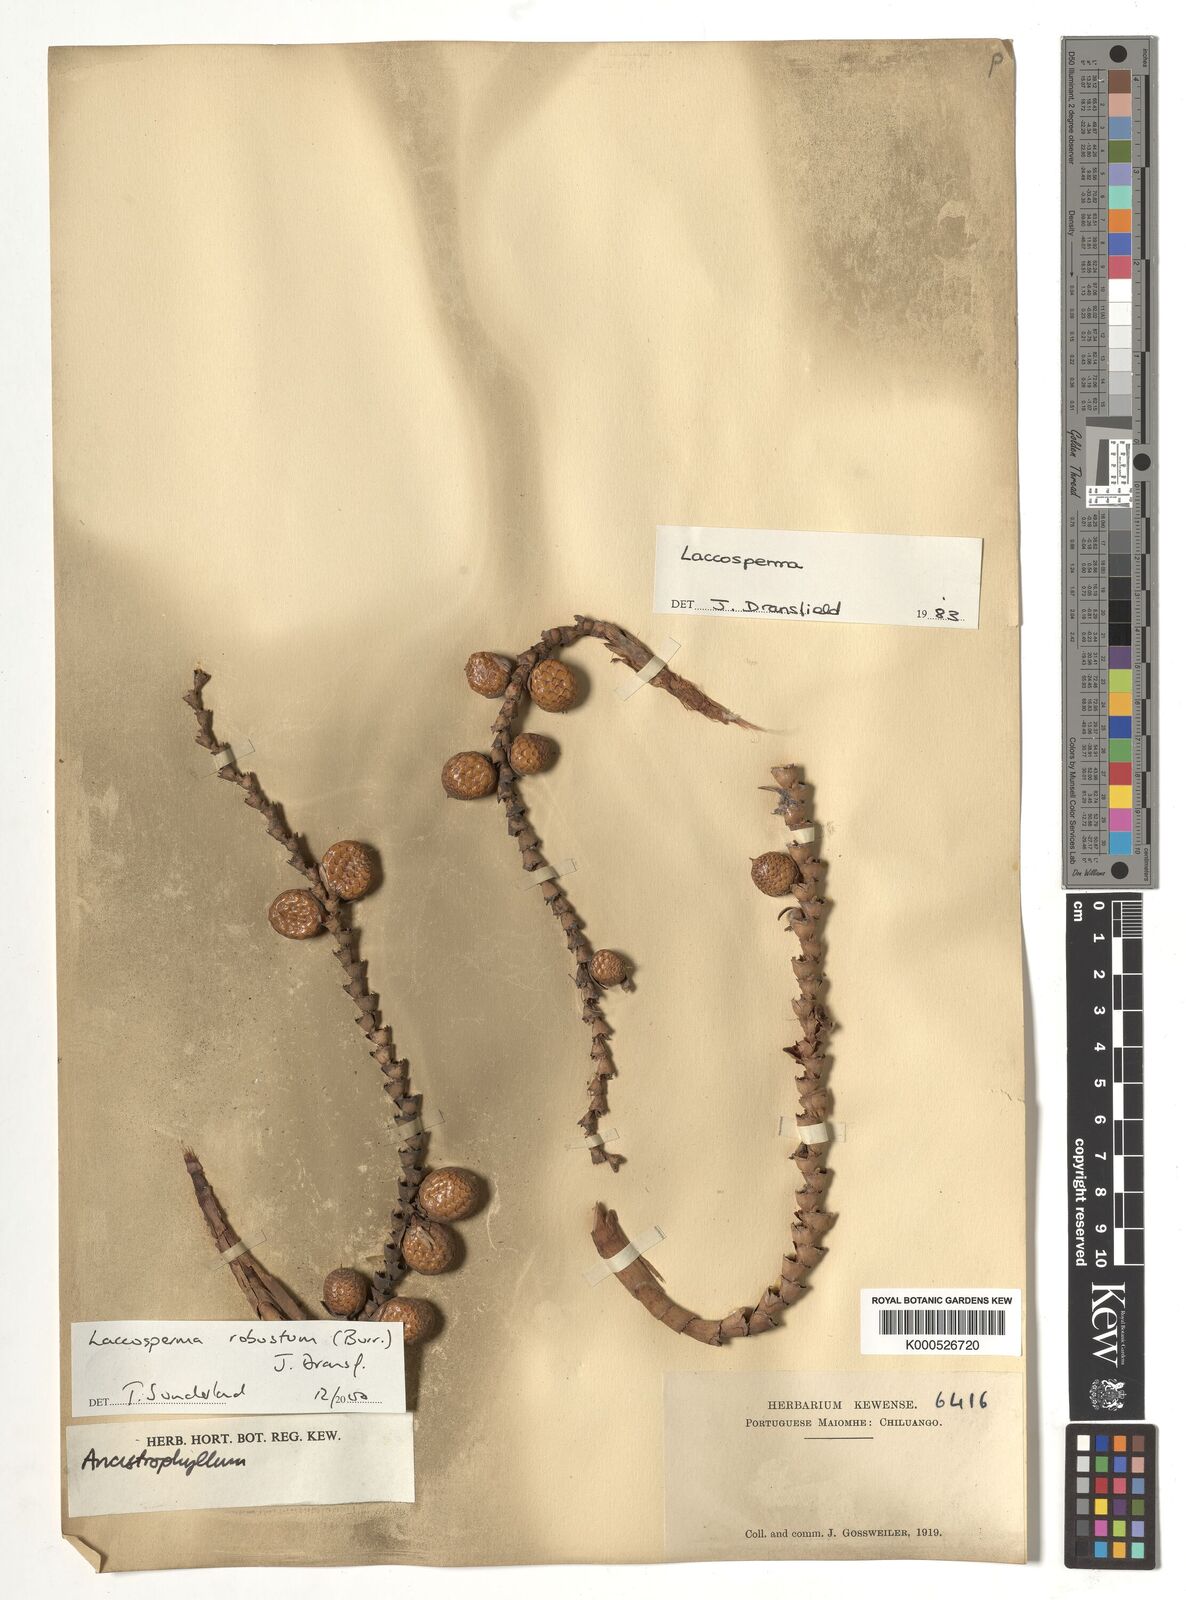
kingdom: Plantae
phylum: Tracheophyta
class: Liliopsida
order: Arecales
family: Arecaceae
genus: Laccosperma
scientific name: Laccosperma robustum
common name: Rattan
